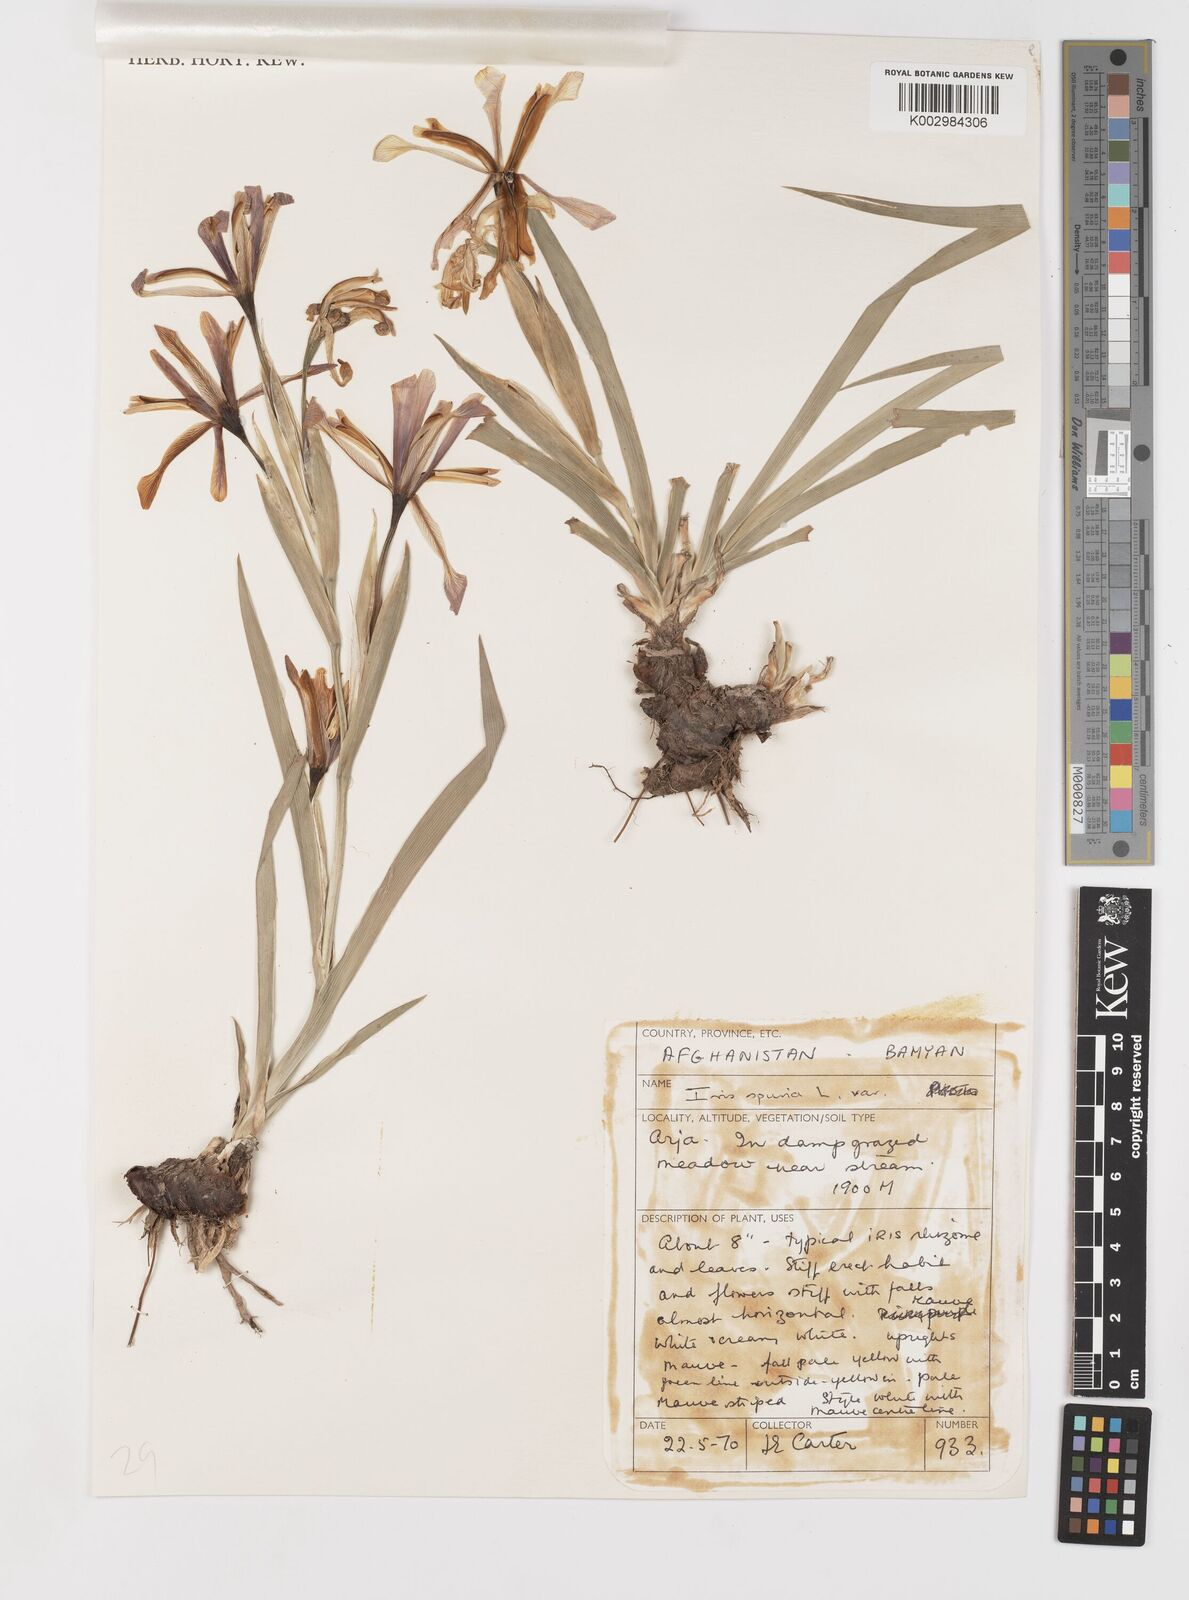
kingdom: Plantae
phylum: Tracheophyta
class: Liliopsida
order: Asparagales
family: Iridaceae
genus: Iris
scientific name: Iris spuria
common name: Blue iris
